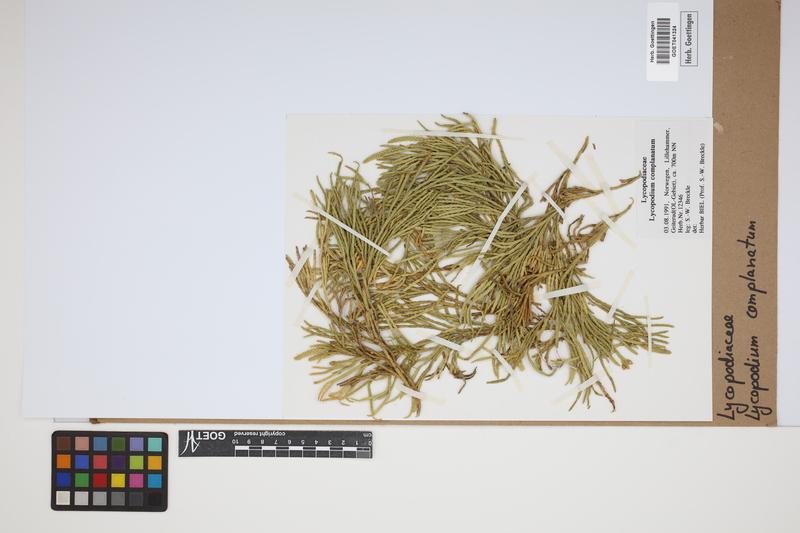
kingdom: Plantae
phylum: Tracheophyta
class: Lycopodiopsida
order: Lycopodiales
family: Lycopodiaceae
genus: Diphasiastrum
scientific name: Diphasiastrum complanatum
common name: Northern running-pine
